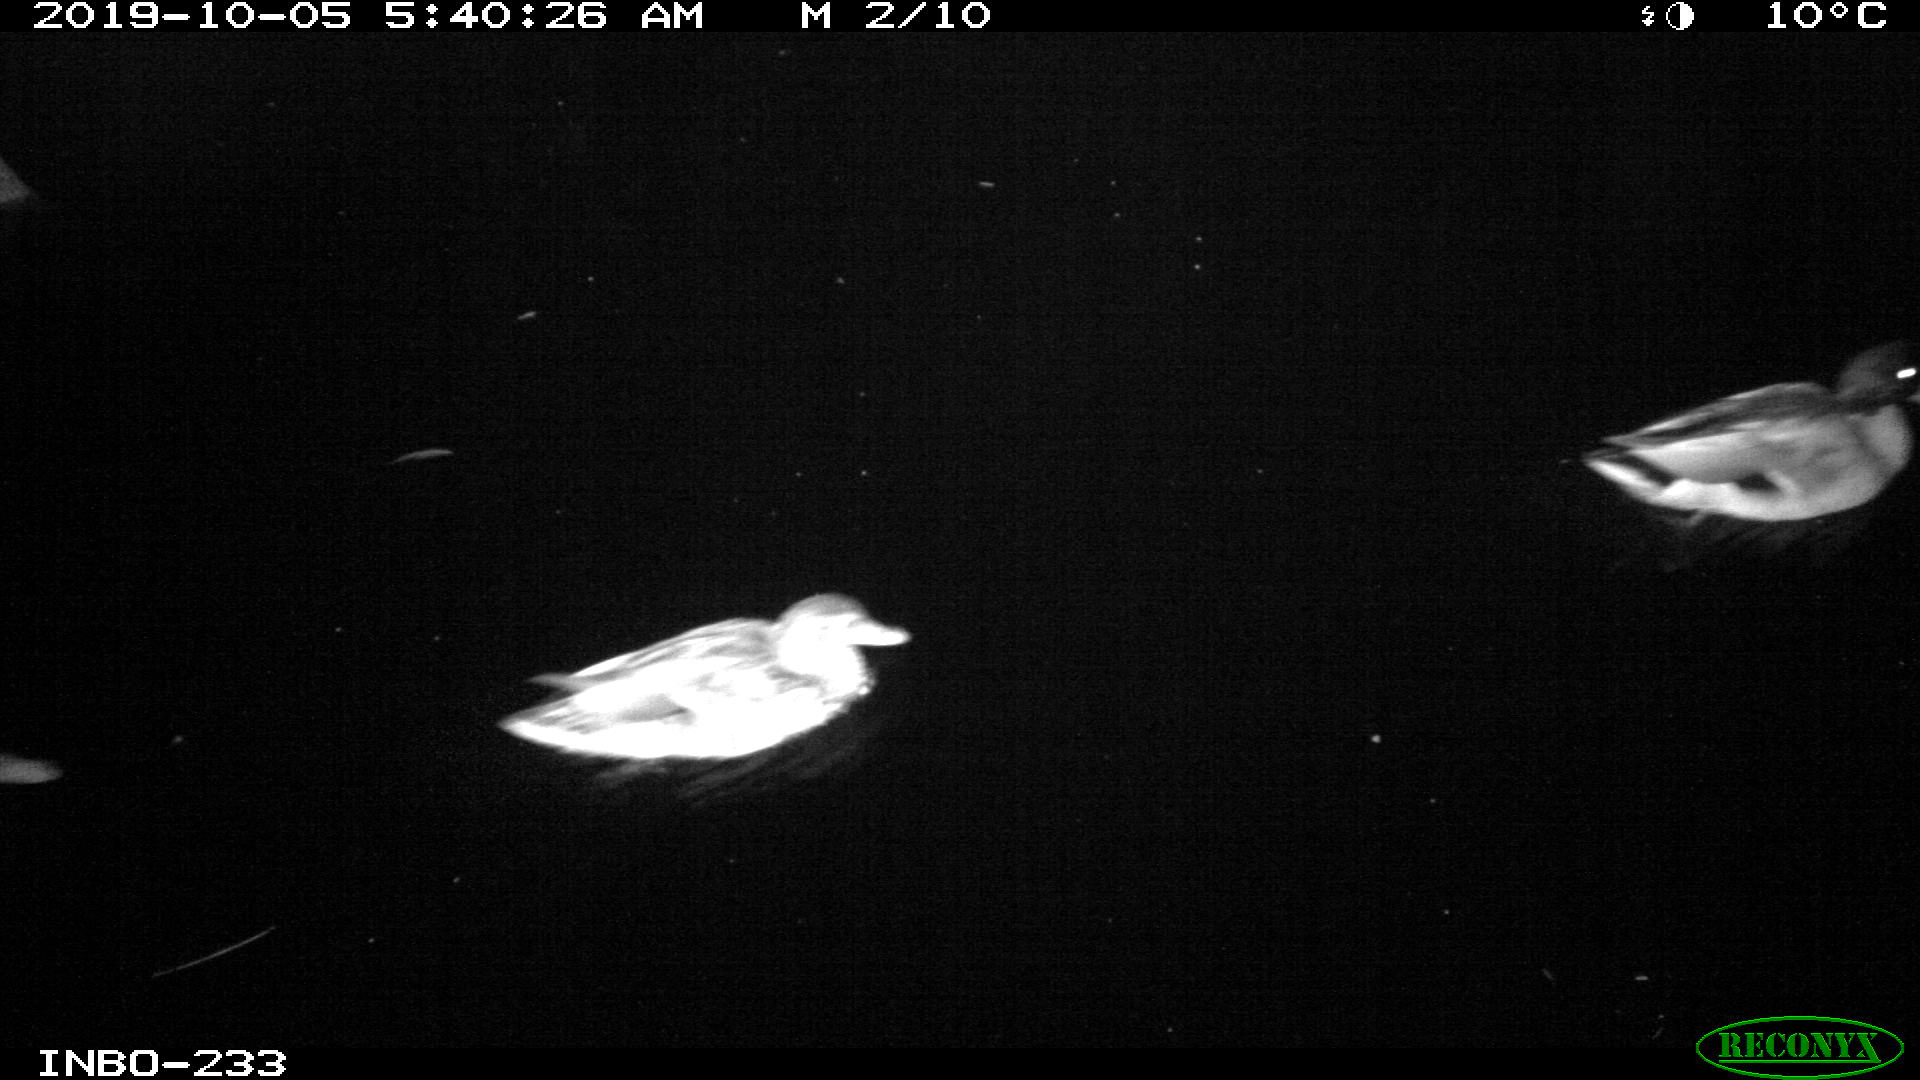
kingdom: Animalia
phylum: Chordata
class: Aves
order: Anseriformes
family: Anatidae
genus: Anas
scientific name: Anas platyrhynchos
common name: Mallard
